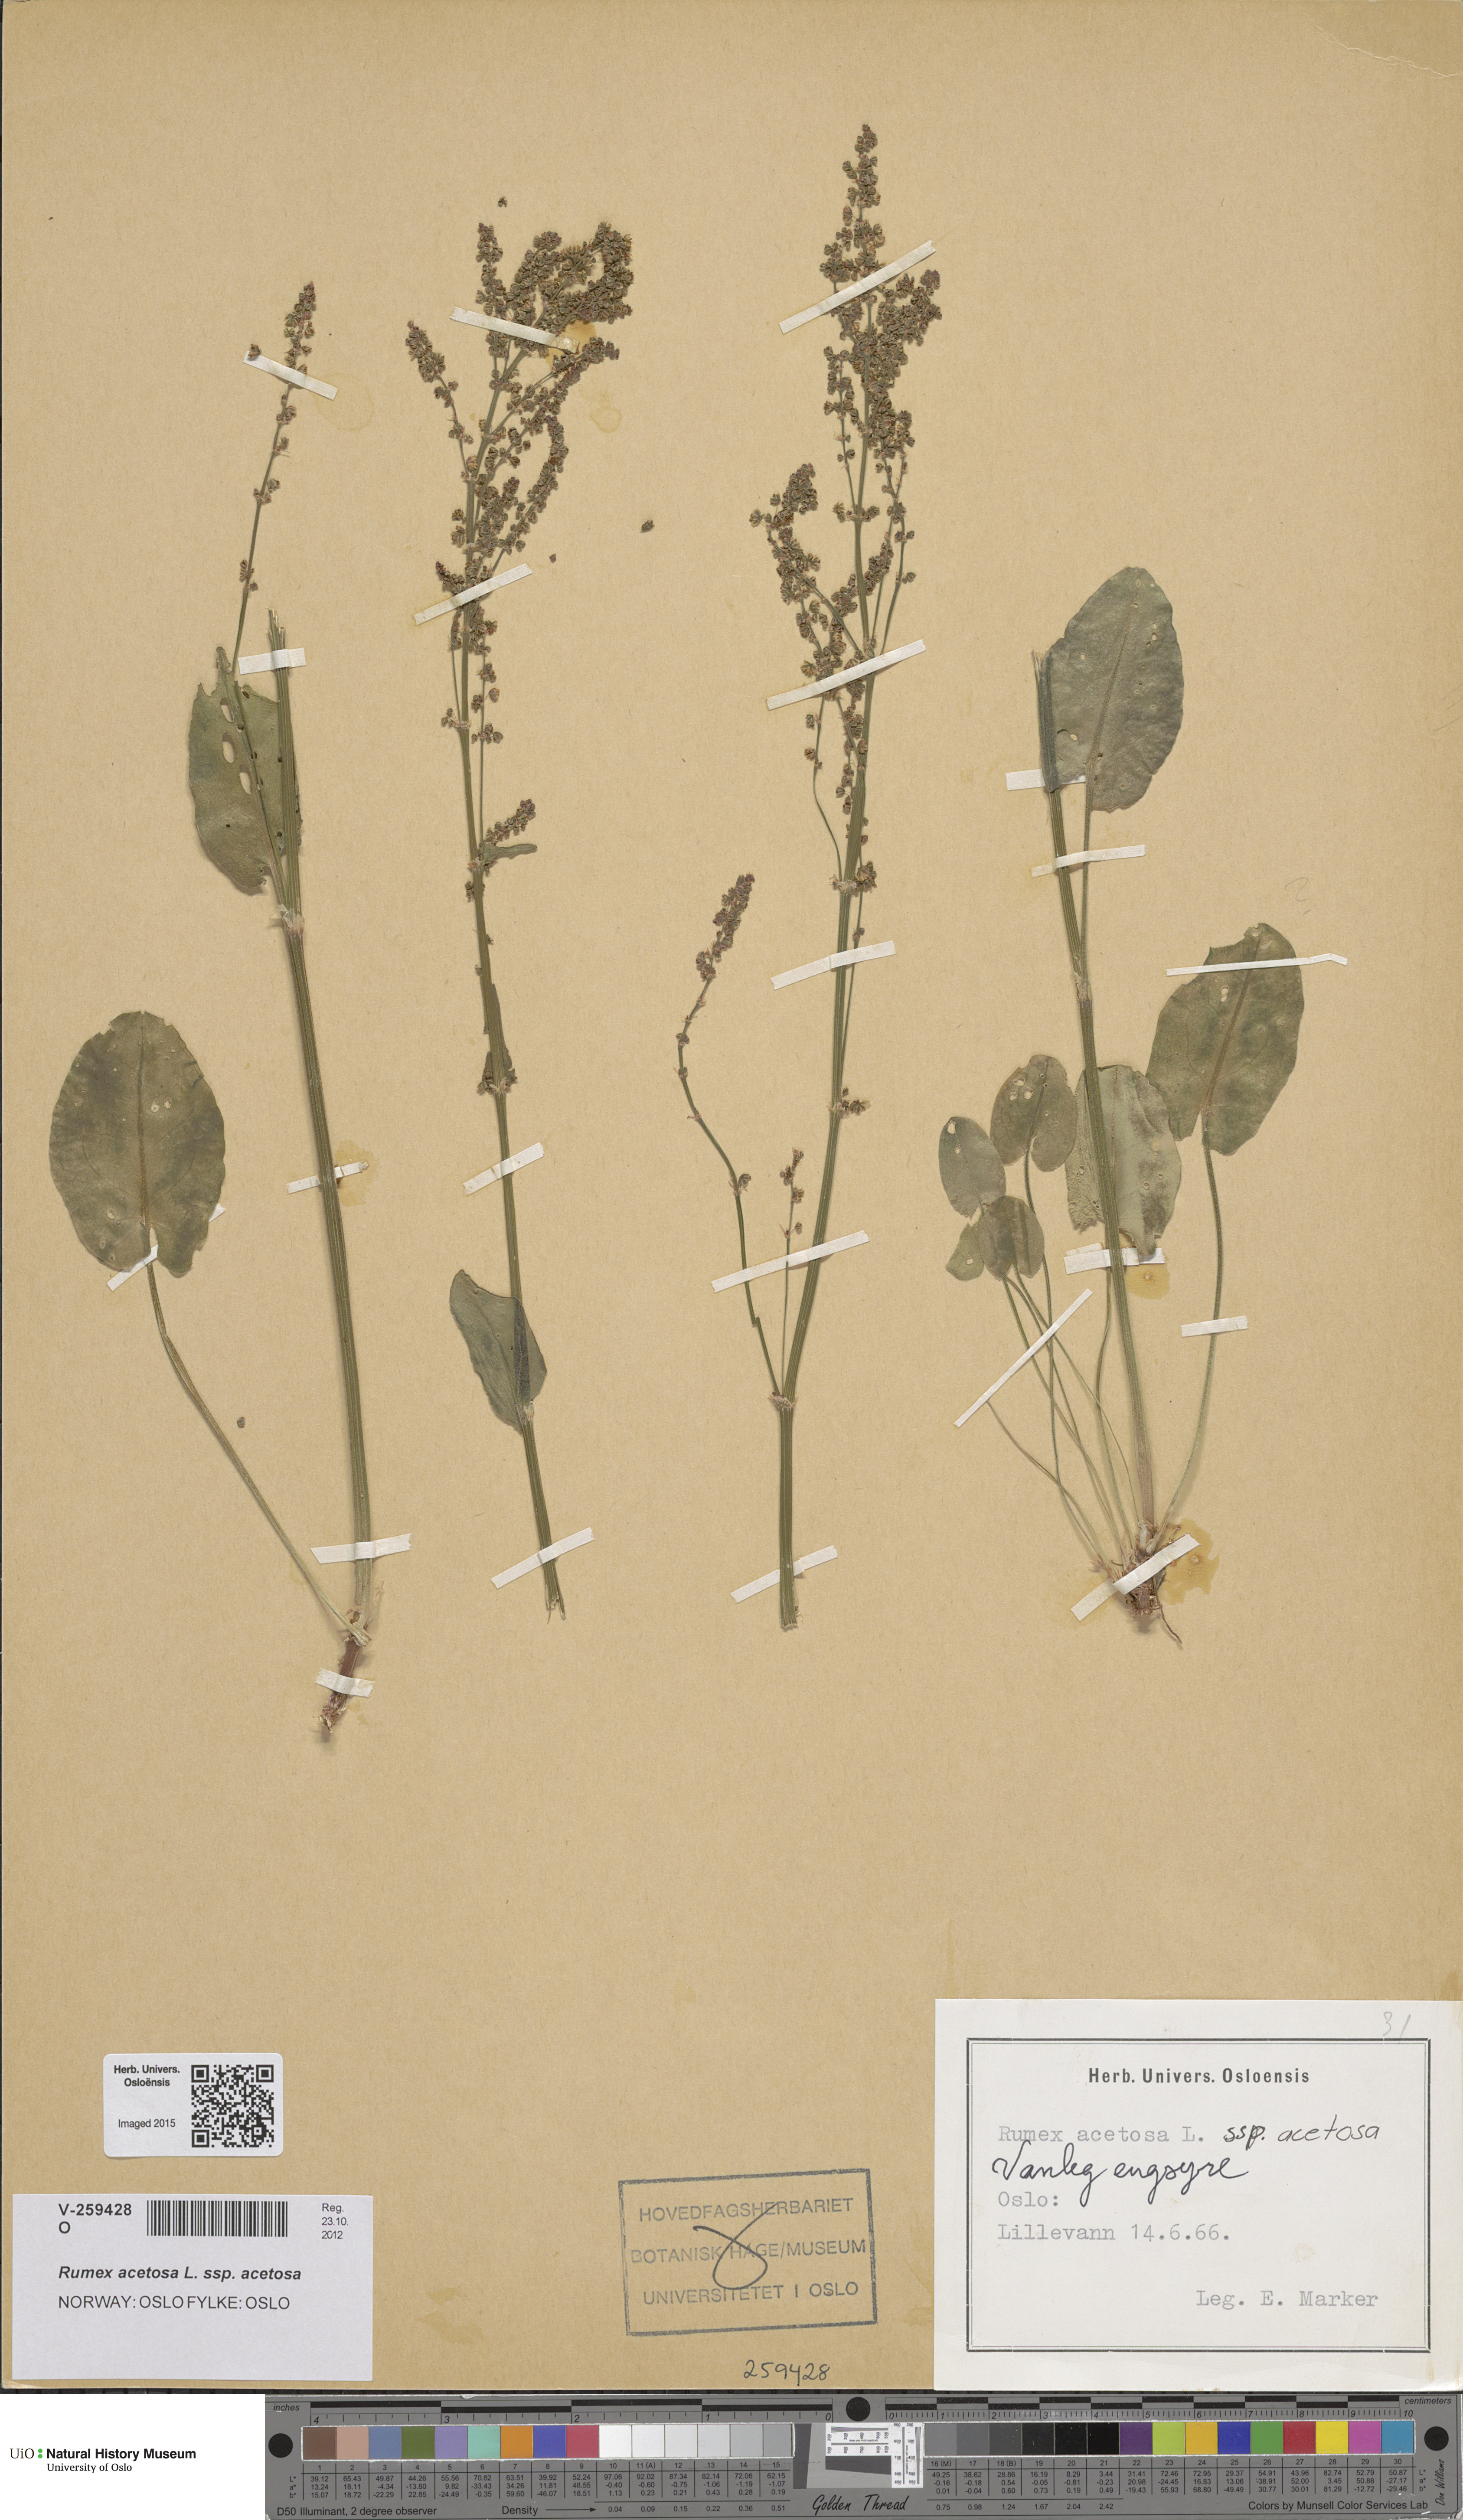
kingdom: Plantae
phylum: Tracheophyta
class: Magnoliopsida
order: Caryophyllales
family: Polygonaceae
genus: Rumex
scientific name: Rumex acetosa
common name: Garden sorrel
